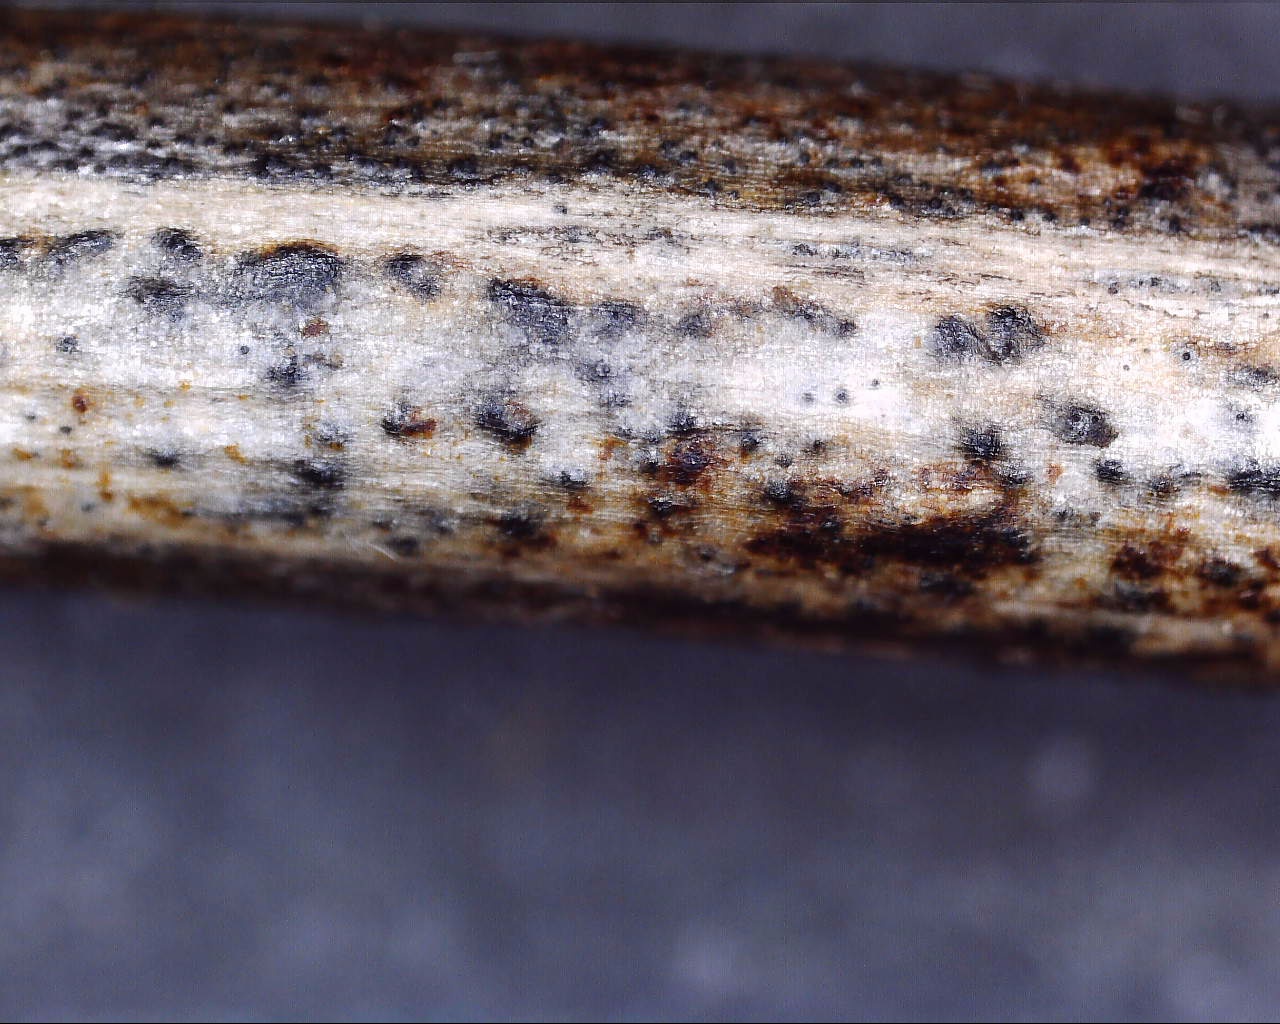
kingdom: Fungi
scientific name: Fungi
